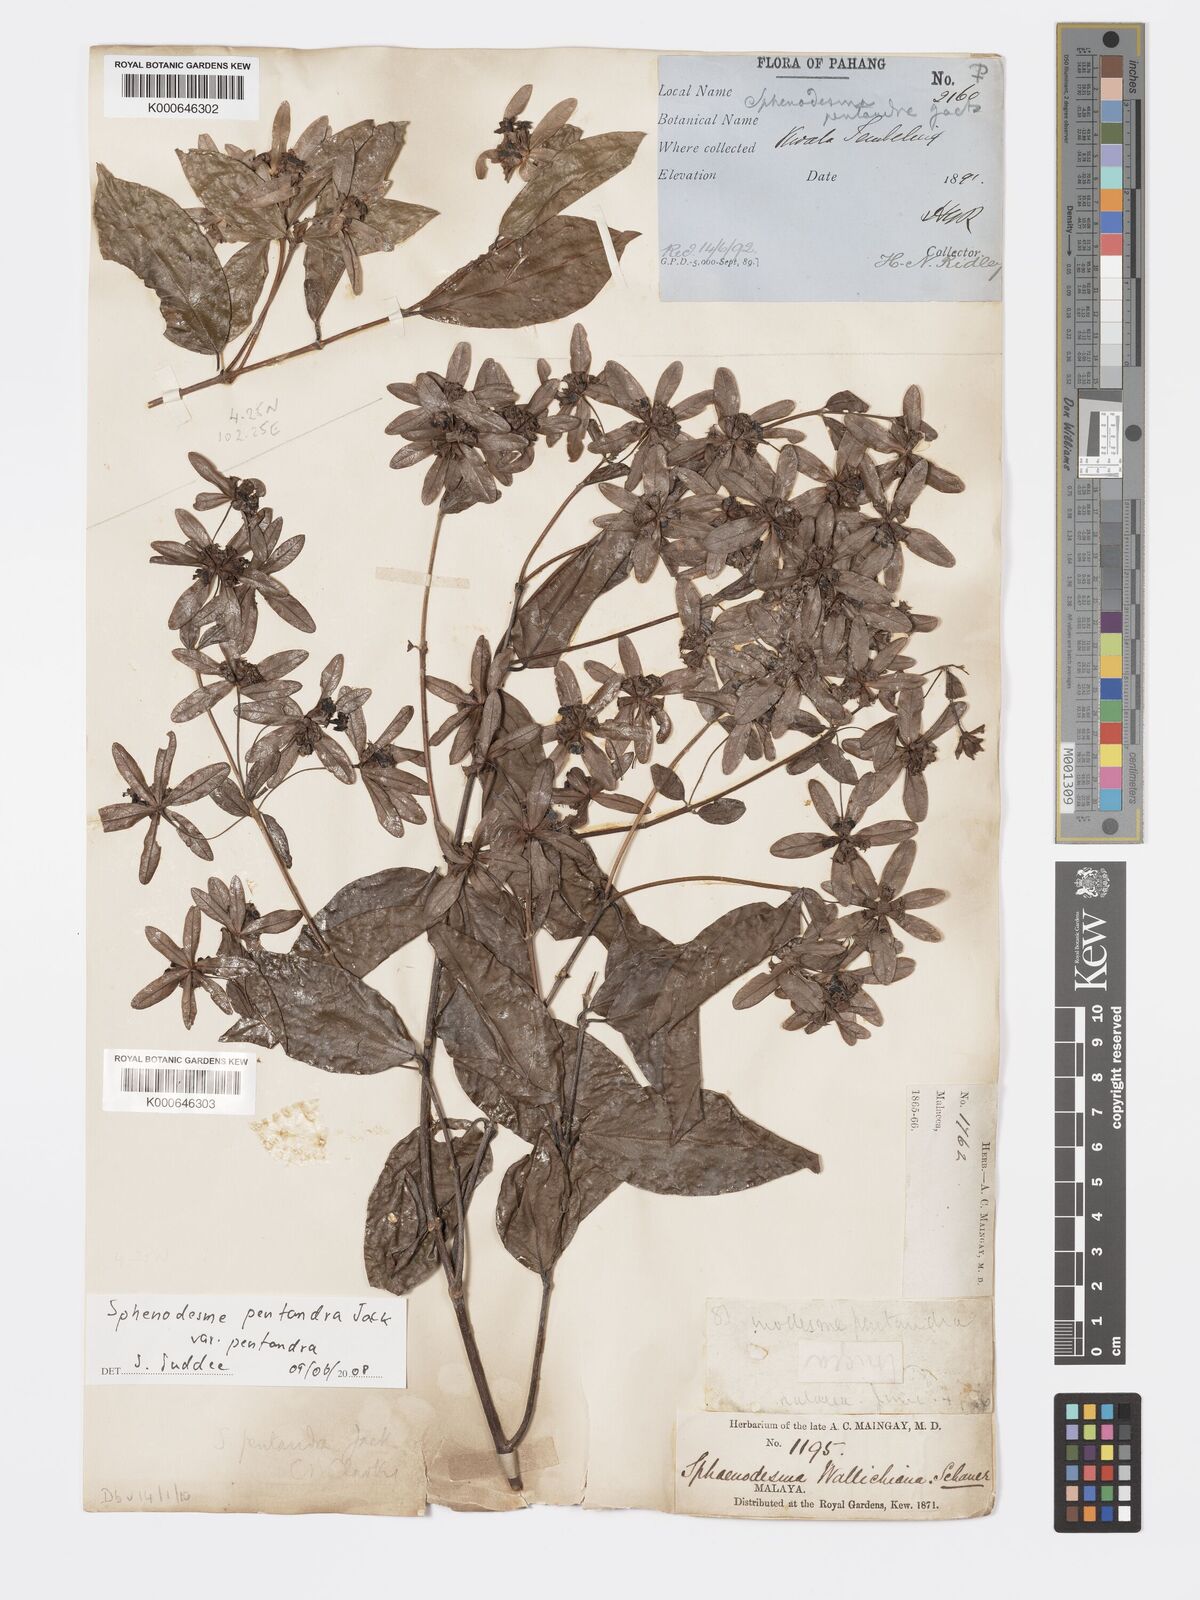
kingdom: Plantae
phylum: Tracheophyta
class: Magnoliopsida
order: Lamiales
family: Lamiaceae
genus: Sphenodesme
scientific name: Sphenodesme pentandra
